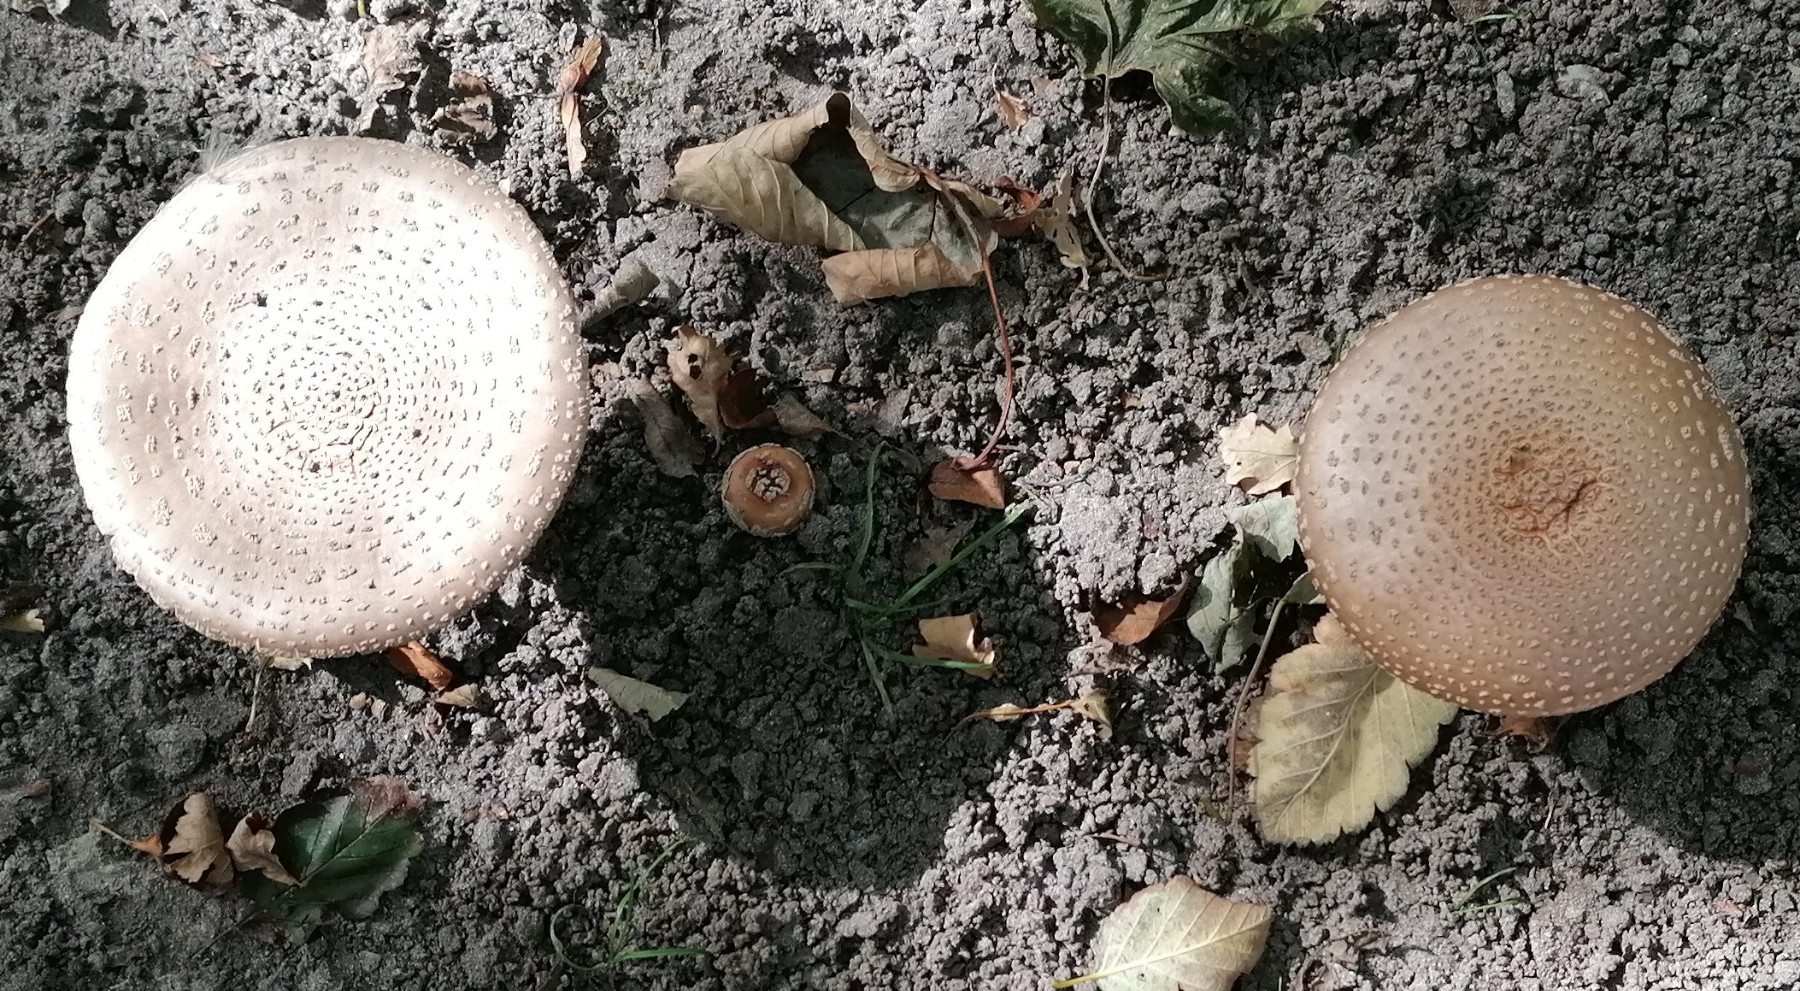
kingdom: Fungi
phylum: Basidiomycota
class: Agaricomycetes
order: Agaricales
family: Amanitaceae
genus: Amanita
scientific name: Amanita rubescens
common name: rødmende fluesvamp
